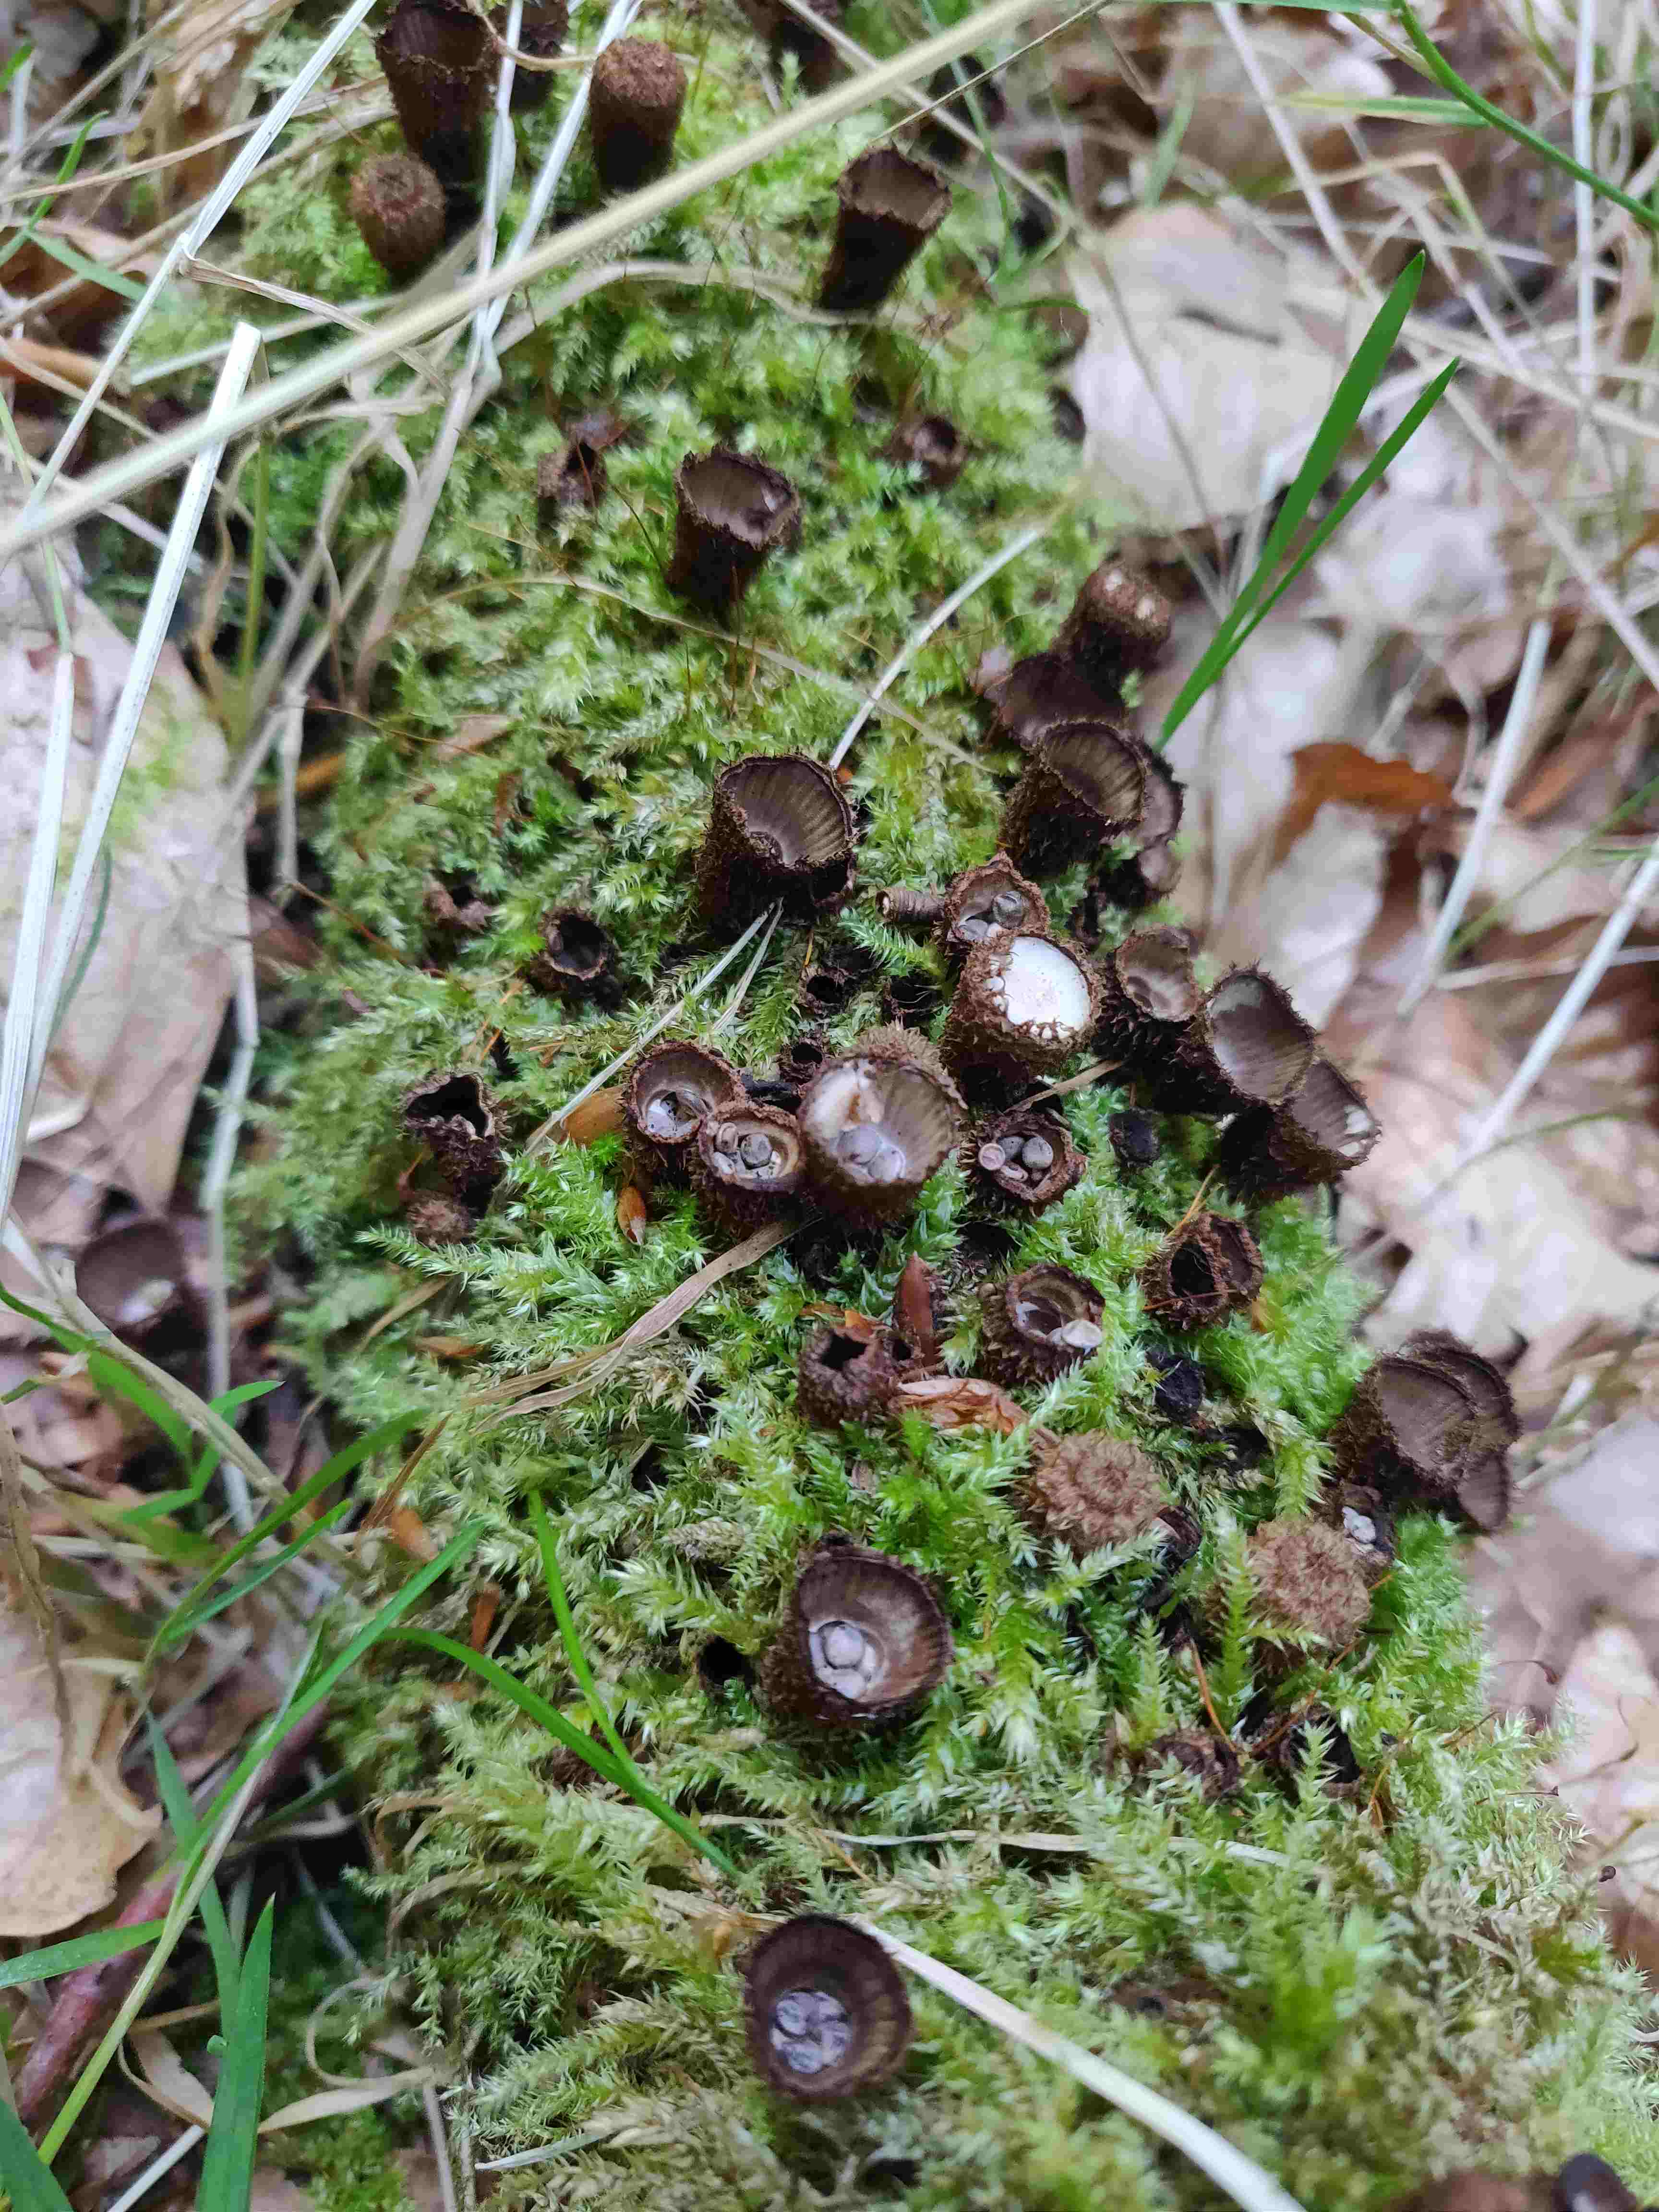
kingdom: Fungi
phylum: Basidiomycota
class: Agaricomycetes
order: Agaricales
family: Agaricaceae
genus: Cyathus
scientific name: Cyathus striatus
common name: stribet redesvamp
